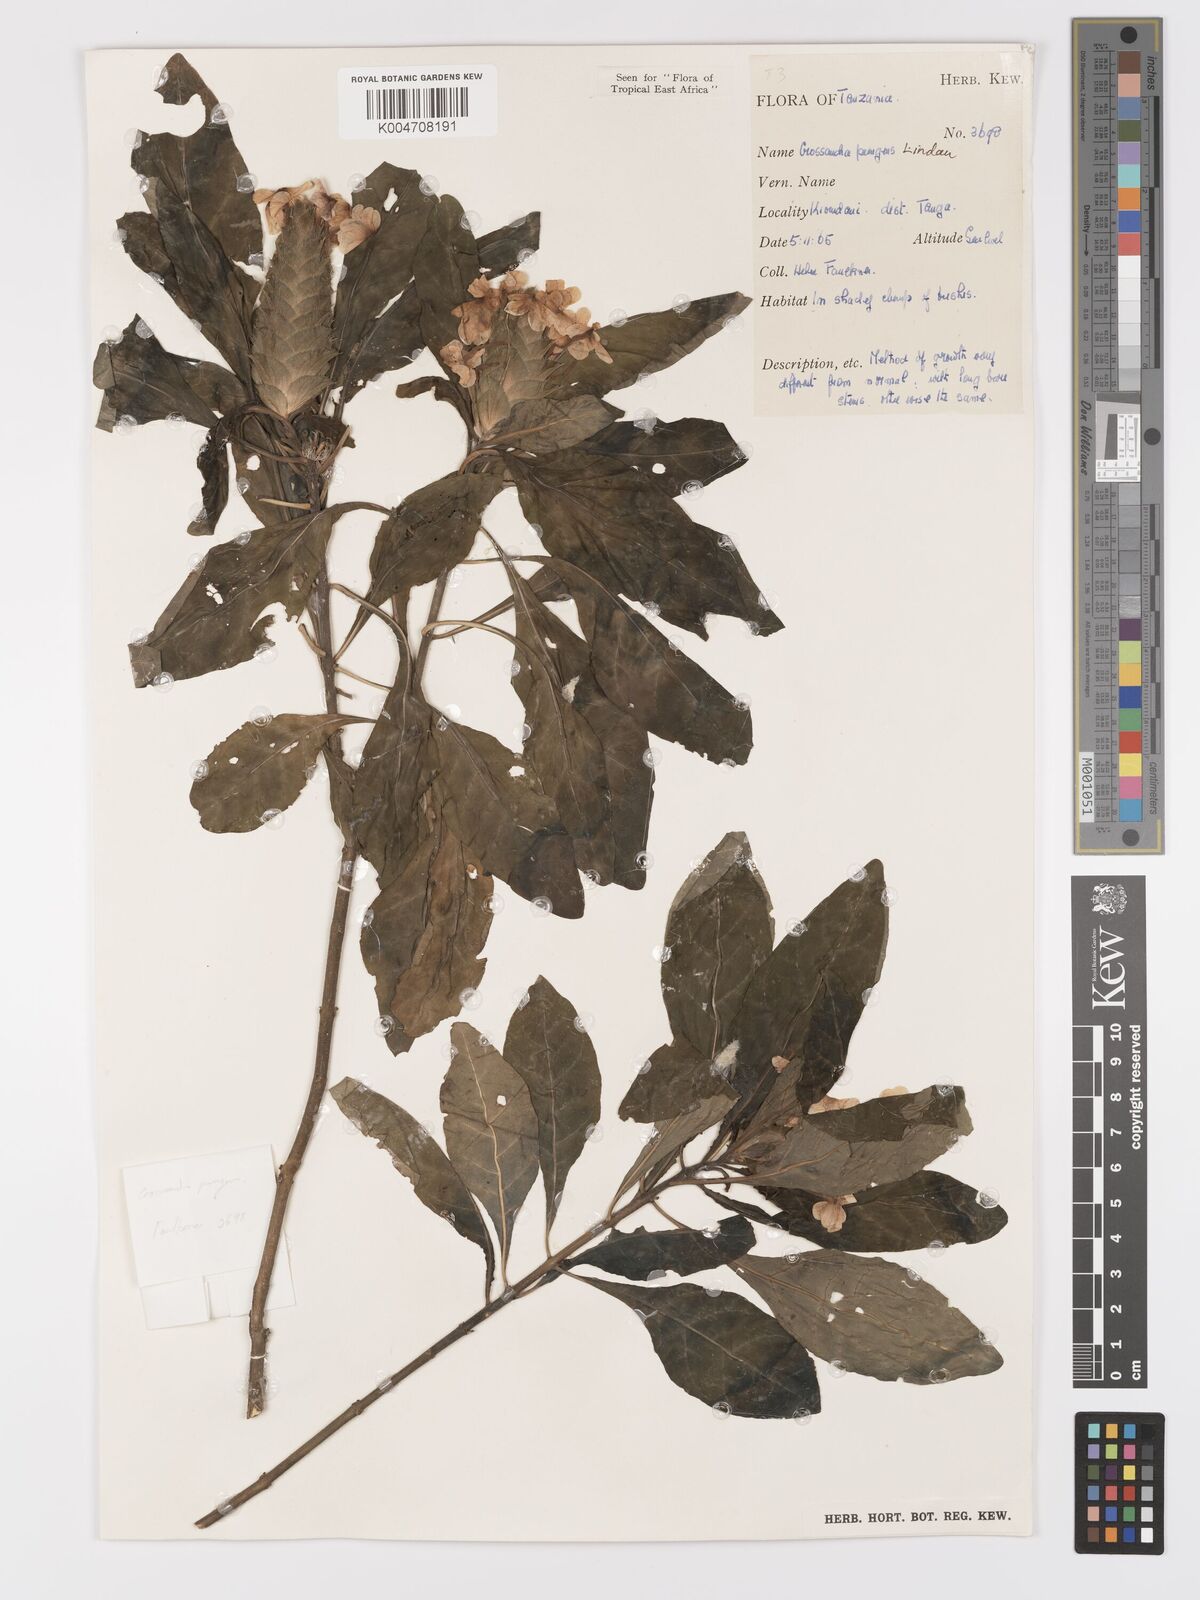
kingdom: Plantae
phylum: Tracheophyta
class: Magnoliopsida
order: Lamiales
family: Acanthaceae
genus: Crossandra
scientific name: Crossandra pungens
